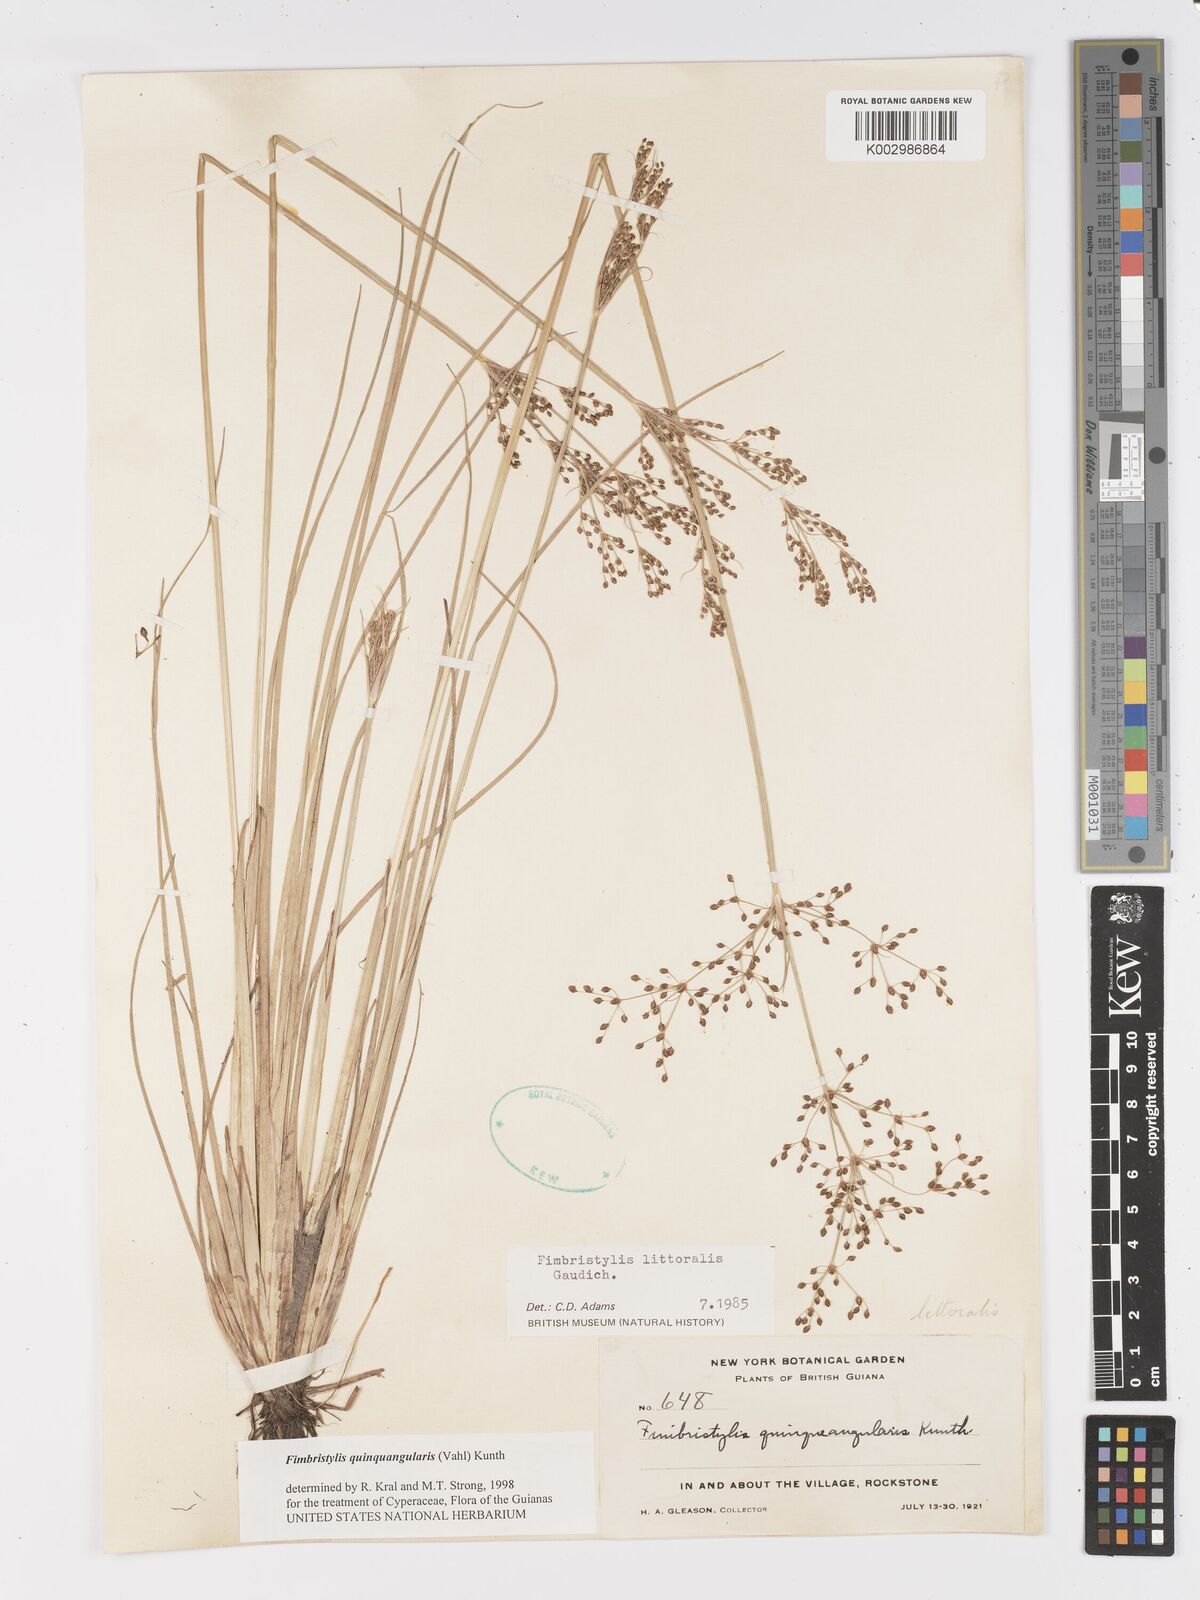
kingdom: Plantae
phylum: Tracheophyta
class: Liliopsida
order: Poales
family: Cyperaceae
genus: Fimbristylis
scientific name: Fimbristylis quinquangularis
